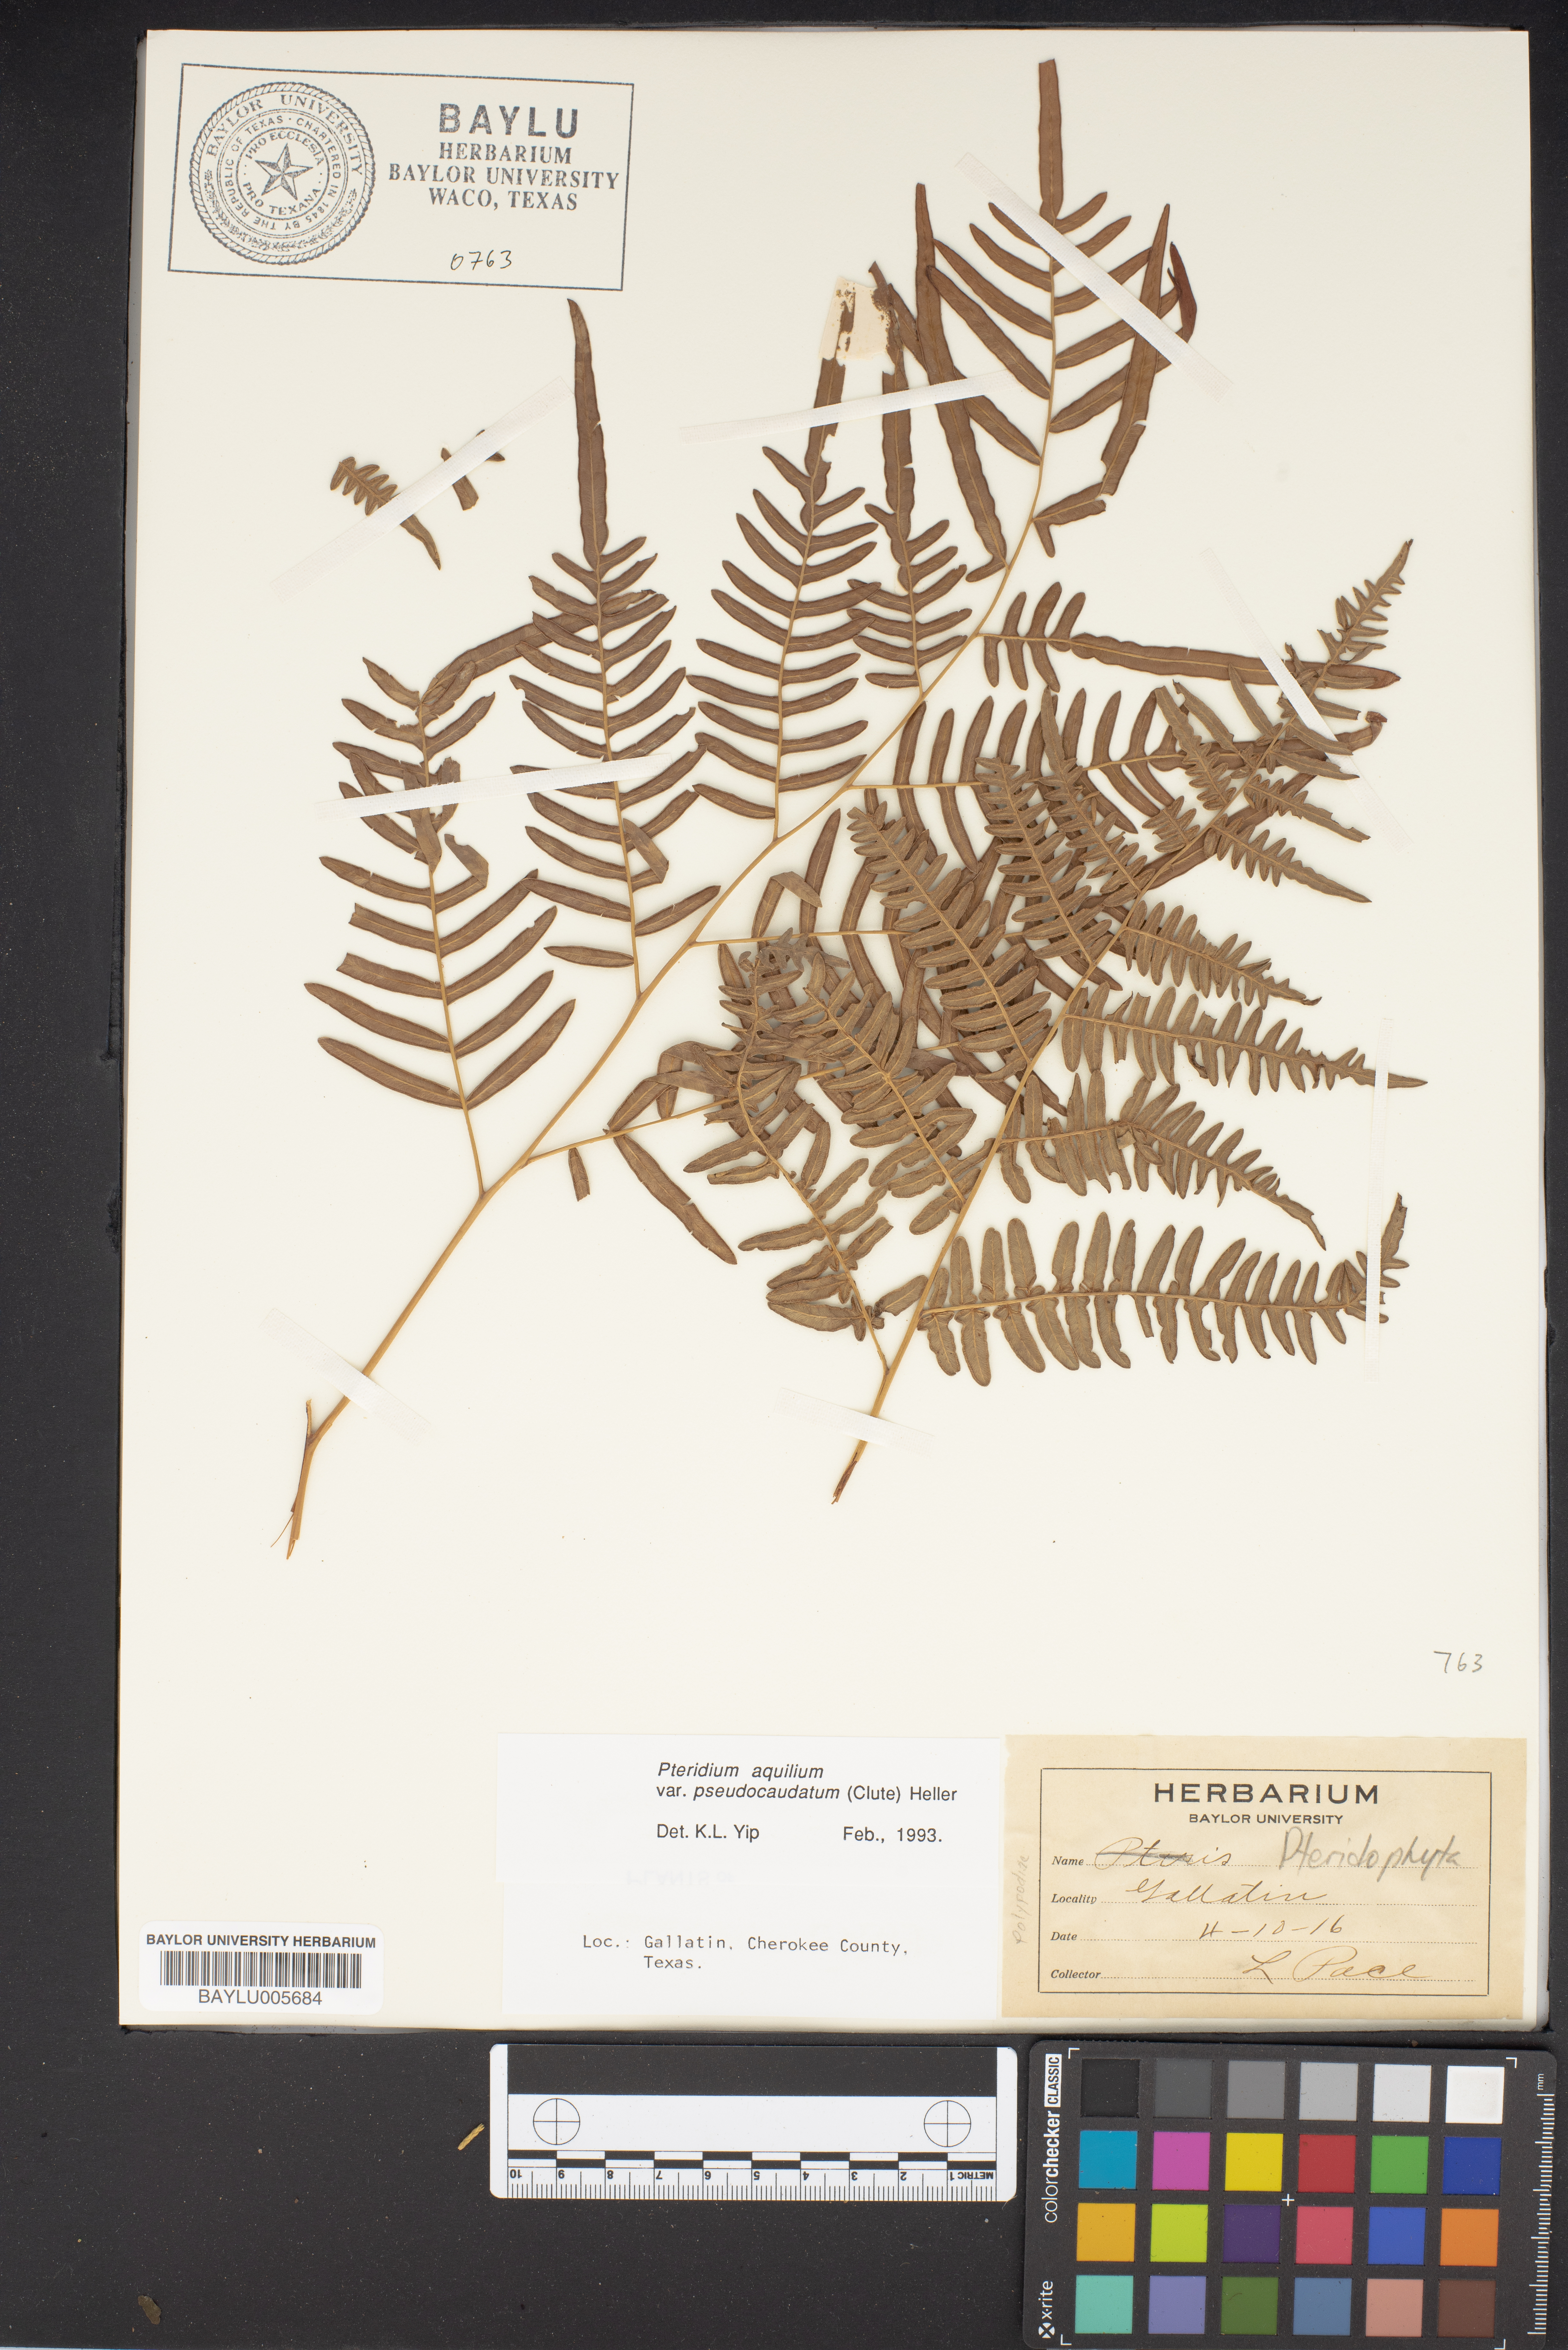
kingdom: Plantae
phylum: Tracheophyta
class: Polypodiopsida
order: Polypodiales
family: Dennstaedtiaceae
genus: Pteridium
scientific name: Pteridium aquilinum
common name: Bracken
